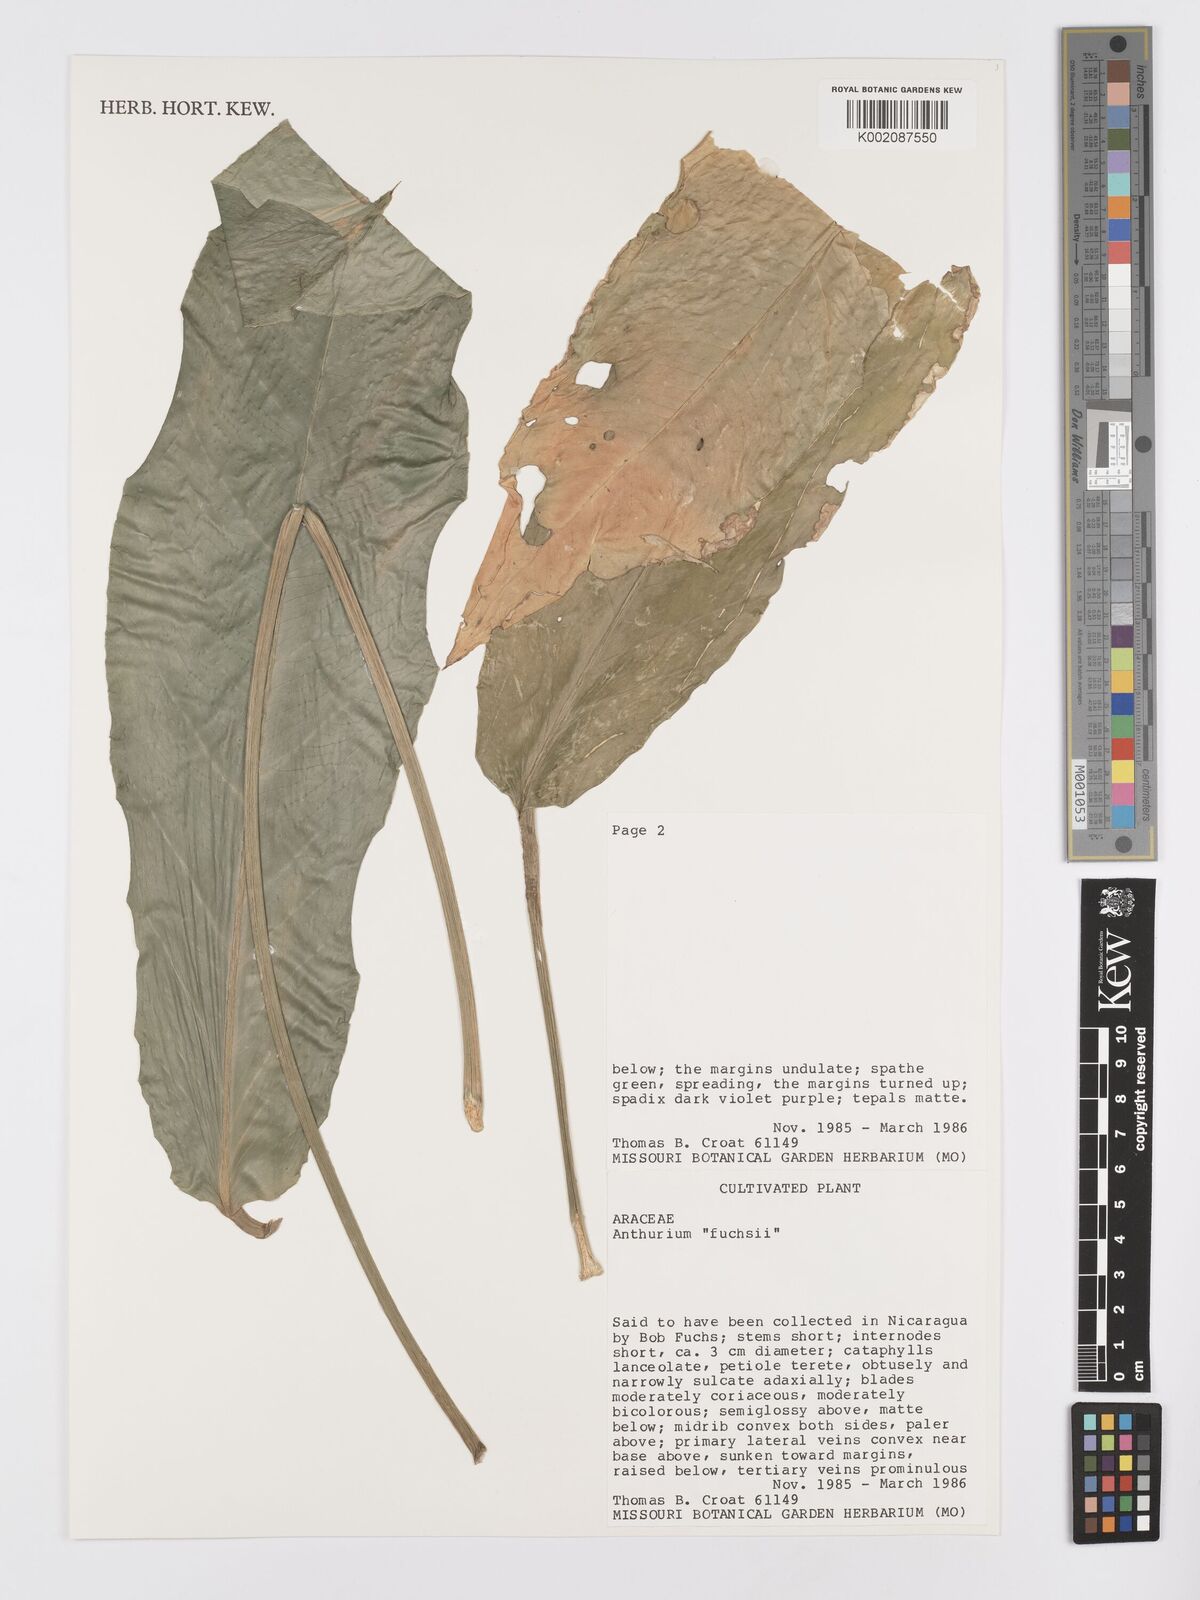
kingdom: Plantae
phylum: Tracheophyta
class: Liliopsida
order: Alismatales
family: Araceae
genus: Anthurium
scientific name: Anthurium
